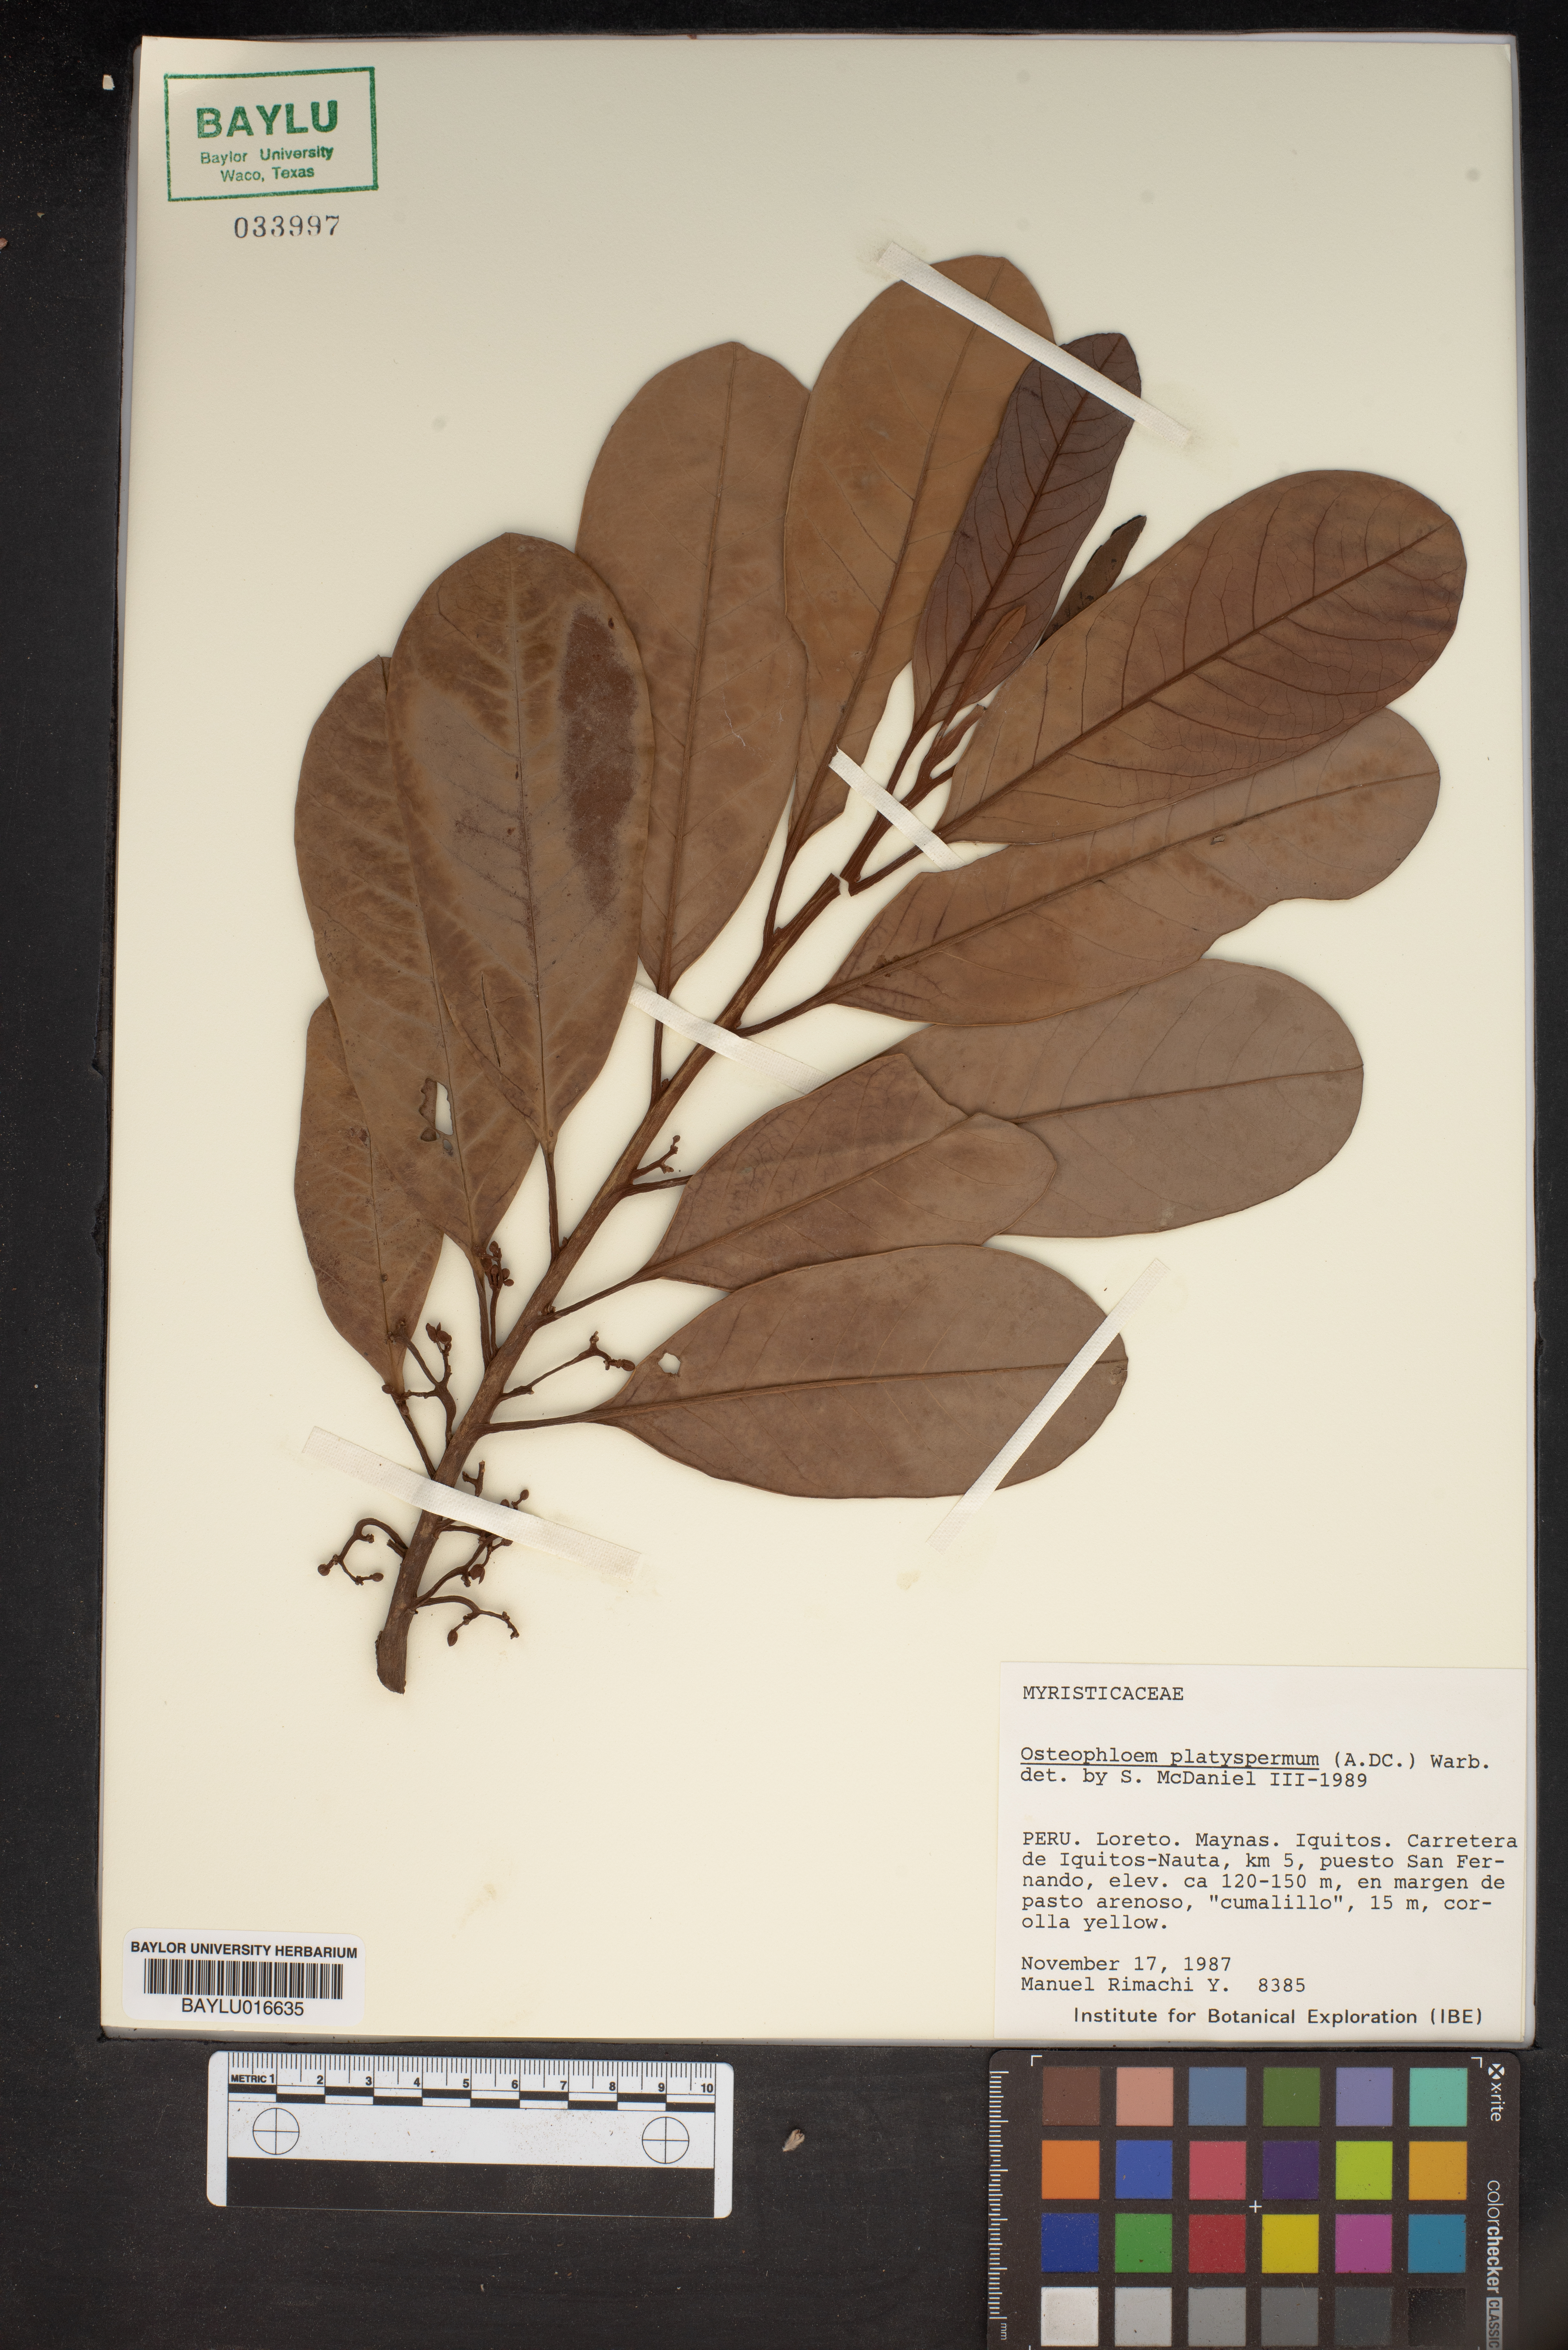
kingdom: Plantae
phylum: Tracheophyta
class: Magnoliopsida
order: Magnoliales
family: Myristicaceae
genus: Osteophloeum
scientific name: Osteophloeum platyspermum
